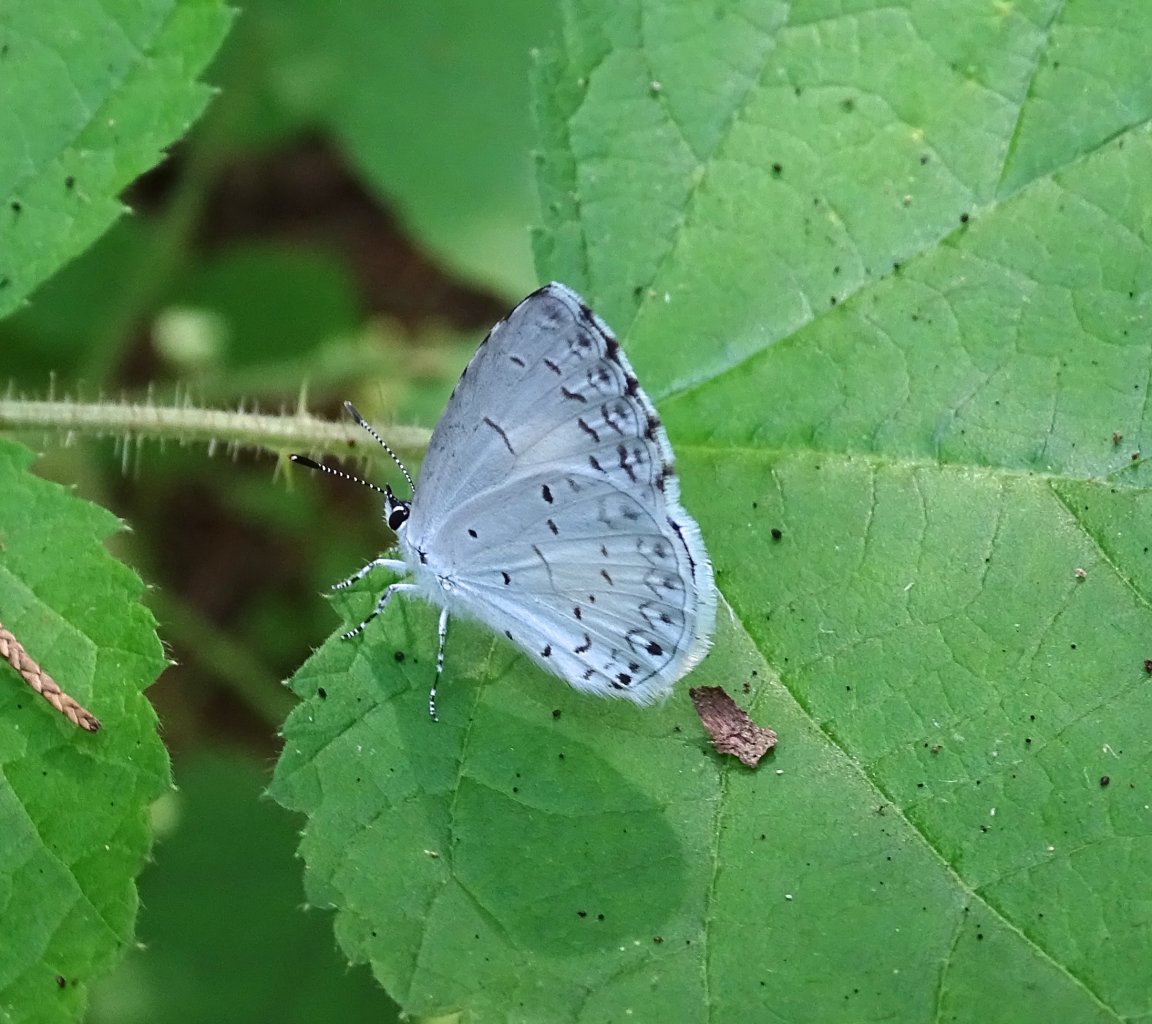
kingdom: Animalia
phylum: Arthropoda
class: Insecta
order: Lepidoptera
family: Lycaenidae
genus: Cyaniris
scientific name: Cyaniris neglecta
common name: Summer Azure
